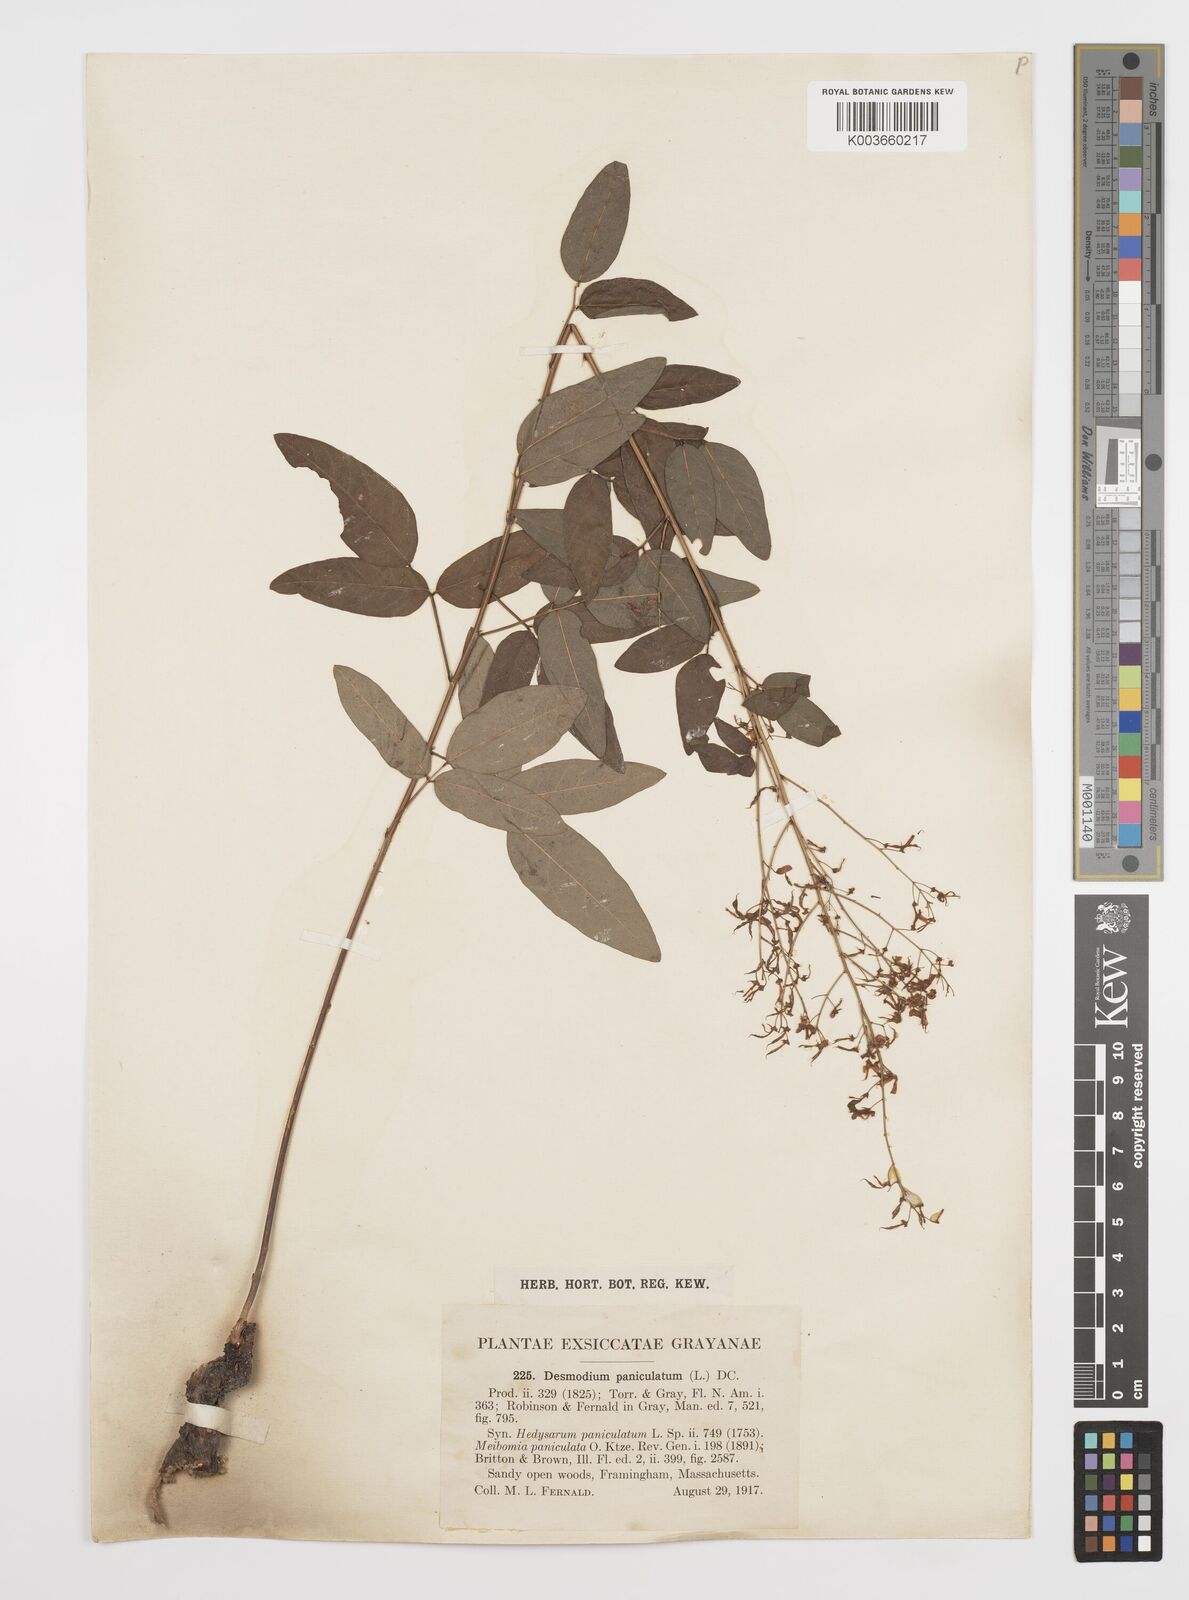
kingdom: Plantae
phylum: Tracheophyta
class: Magnoliopsida
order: Fabales
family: Fabaceae
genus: Desmodium
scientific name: Desmodium paniculatum
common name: Panicled tick-clover
